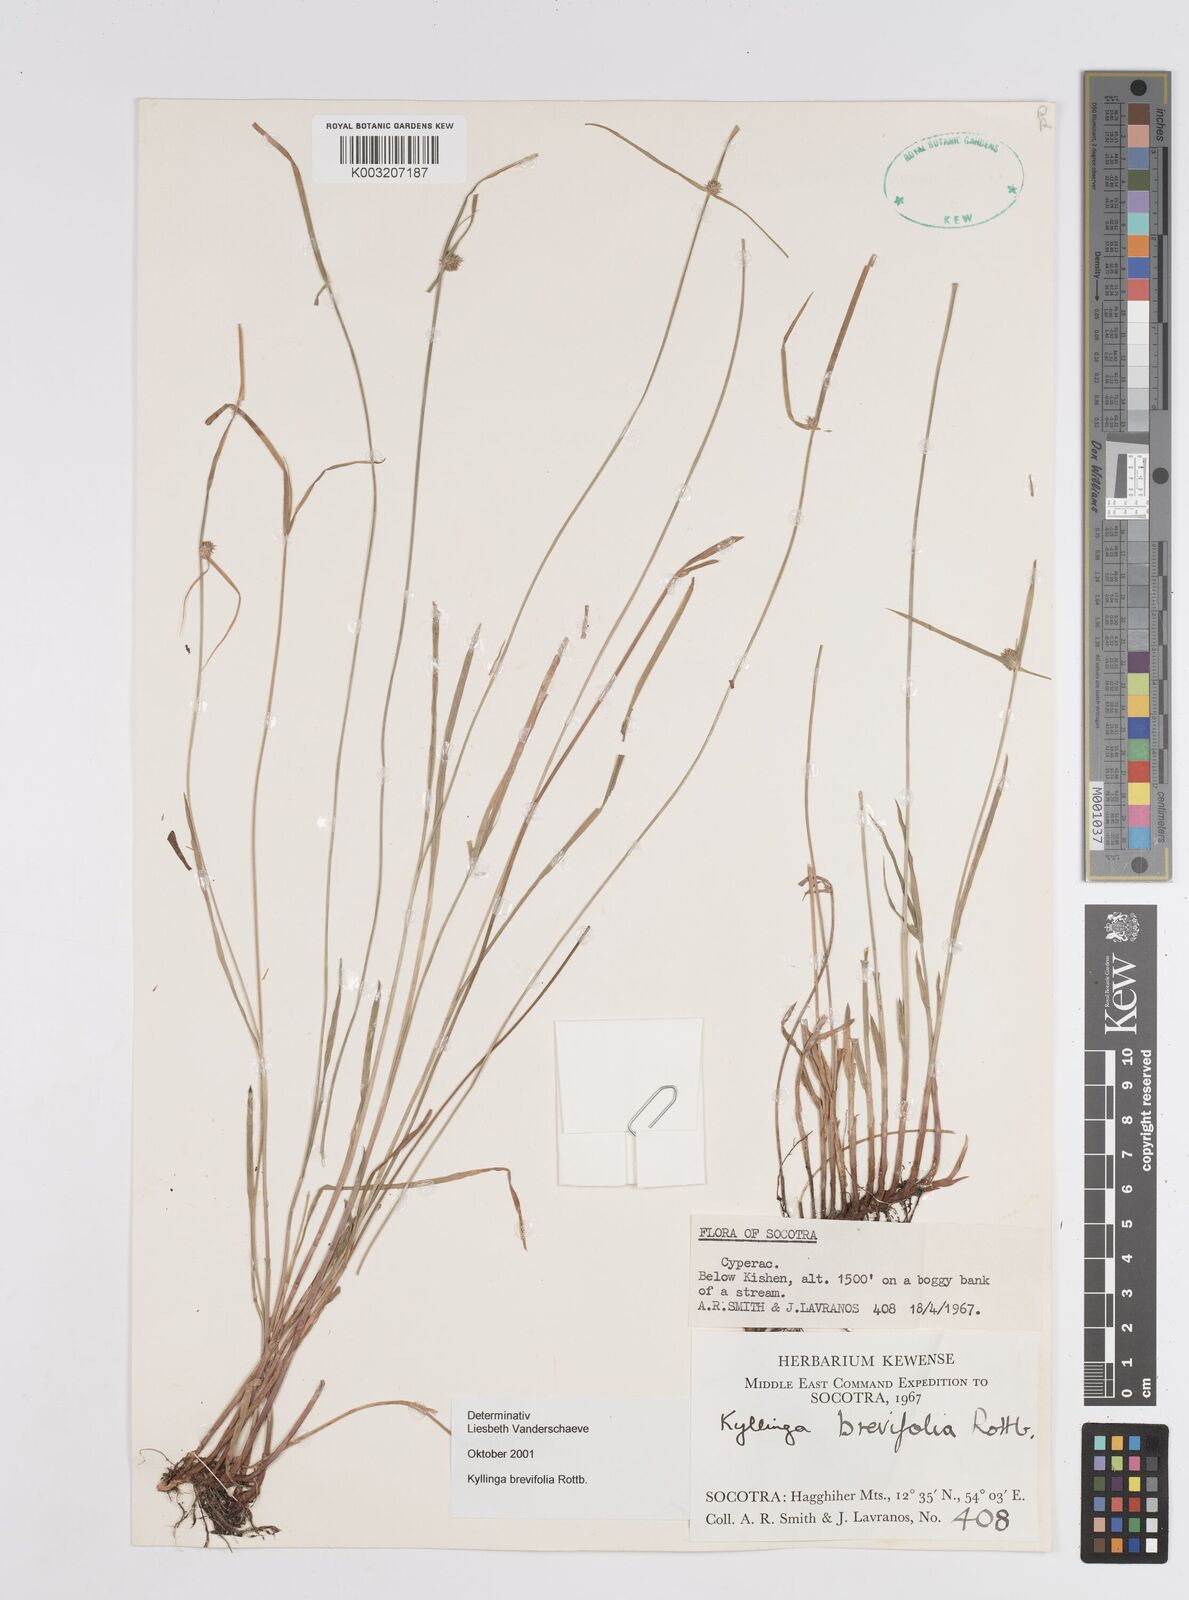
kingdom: Plantae
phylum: Tracheophyta
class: Liliopsida
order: Poales
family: Cyperaceae
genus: Cyperus
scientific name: Cyperus
